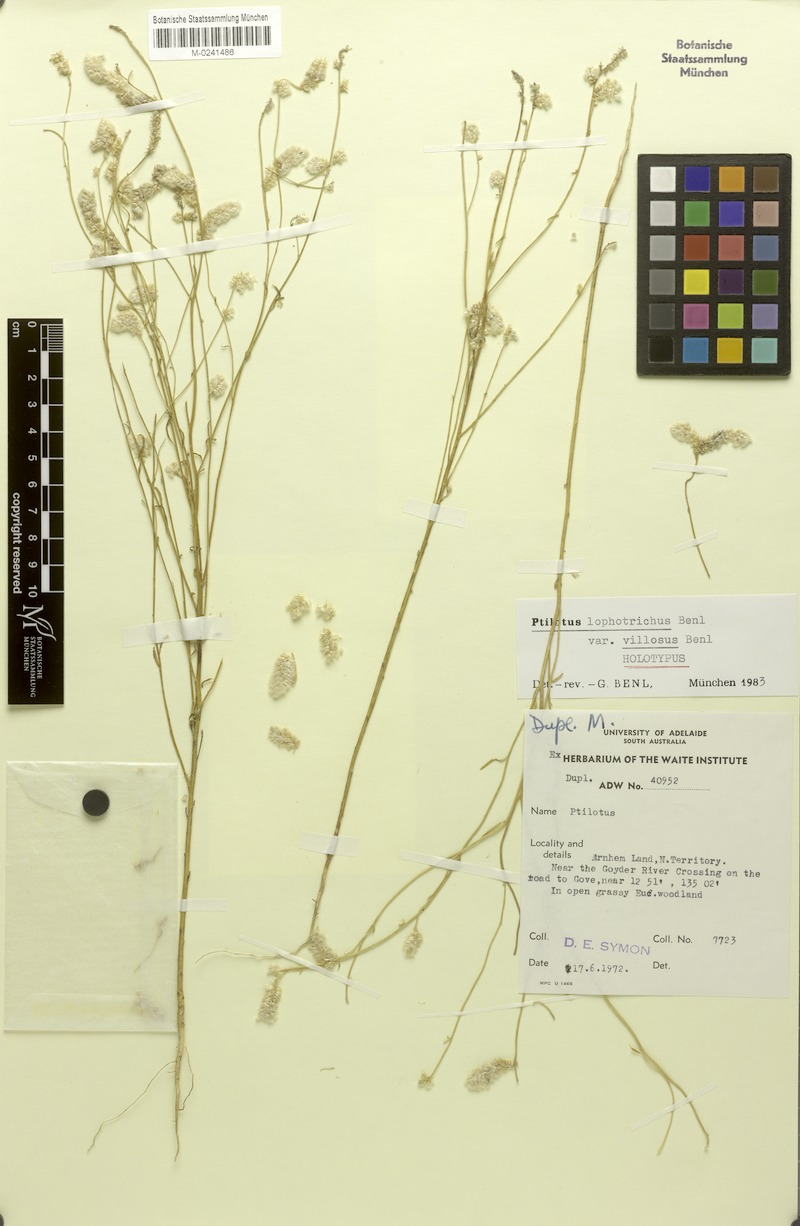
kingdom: Plantae
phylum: Tracheophyta
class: Magnoliopsida
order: Caryophyllales
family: Amaranthaceae
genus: Ptilotus
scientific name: Ptilotus lophotrichus
